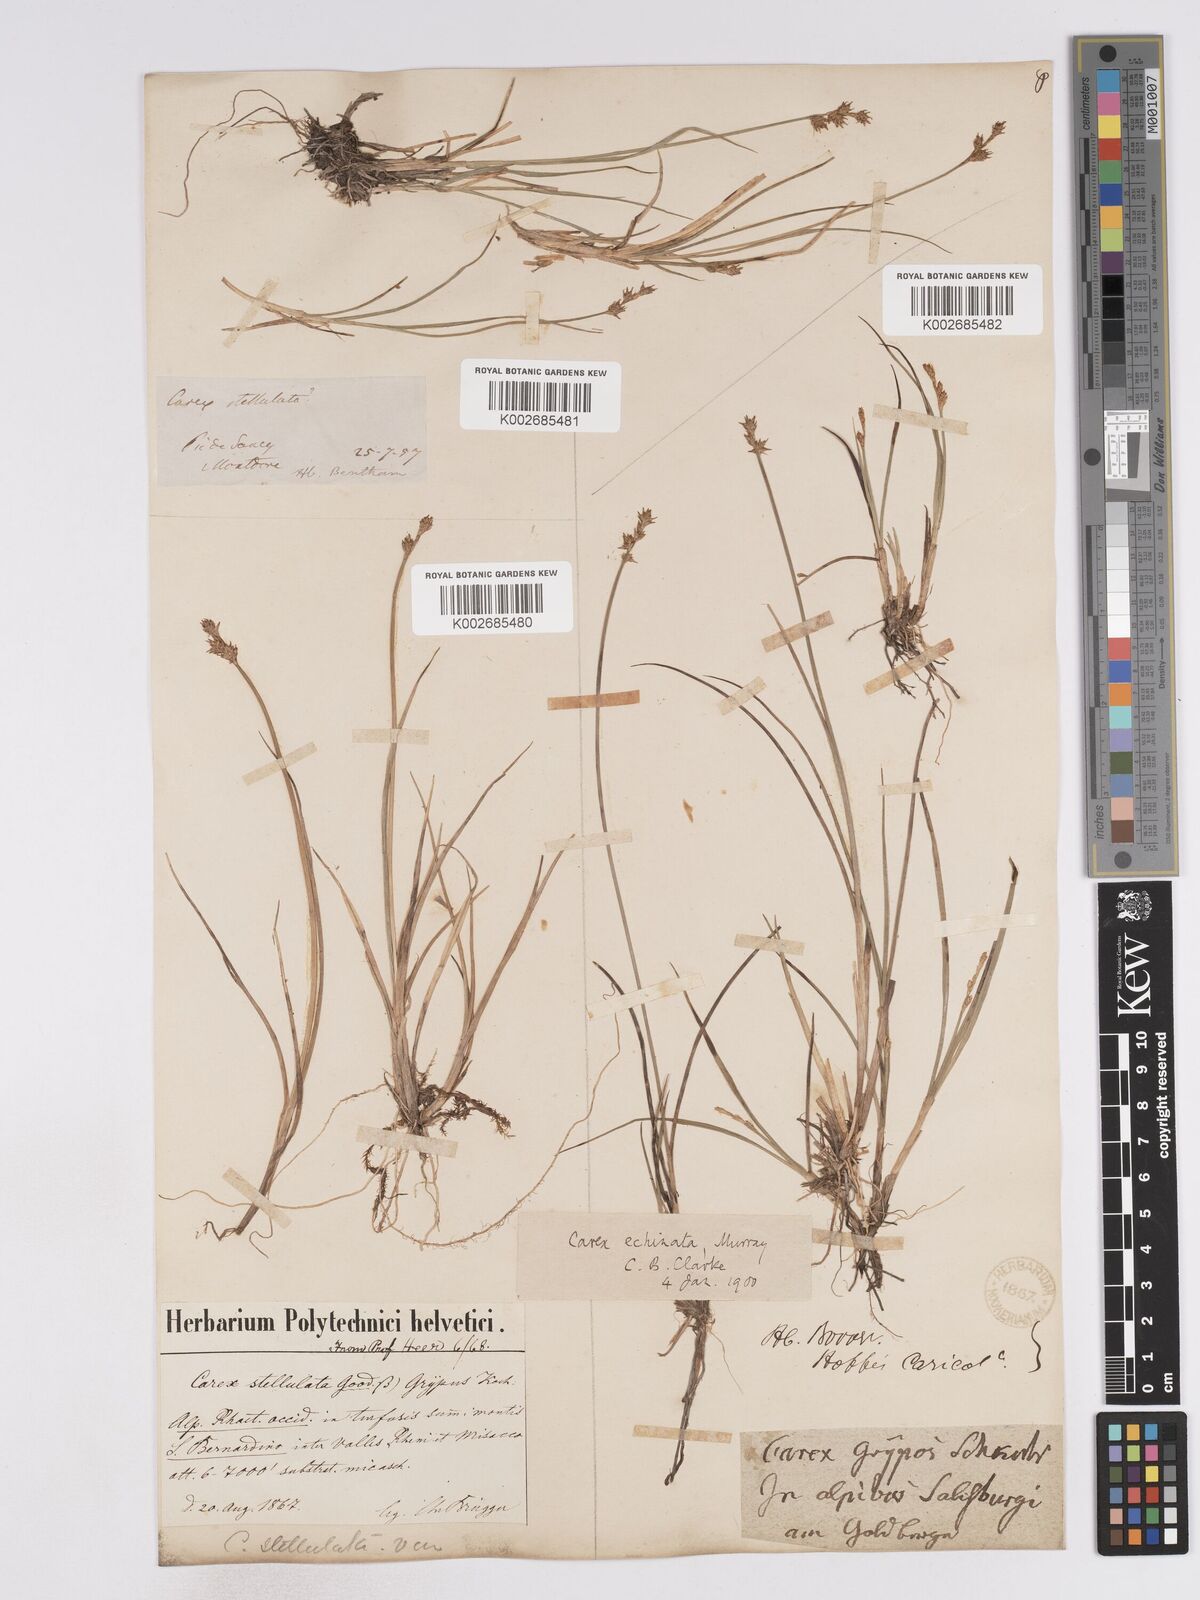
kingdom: Plantae
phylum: Tracheophyta
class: Liliopsida
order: Poales
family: Cyperaceae
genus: Carex
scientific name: Carex echinata
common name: Star sedge
